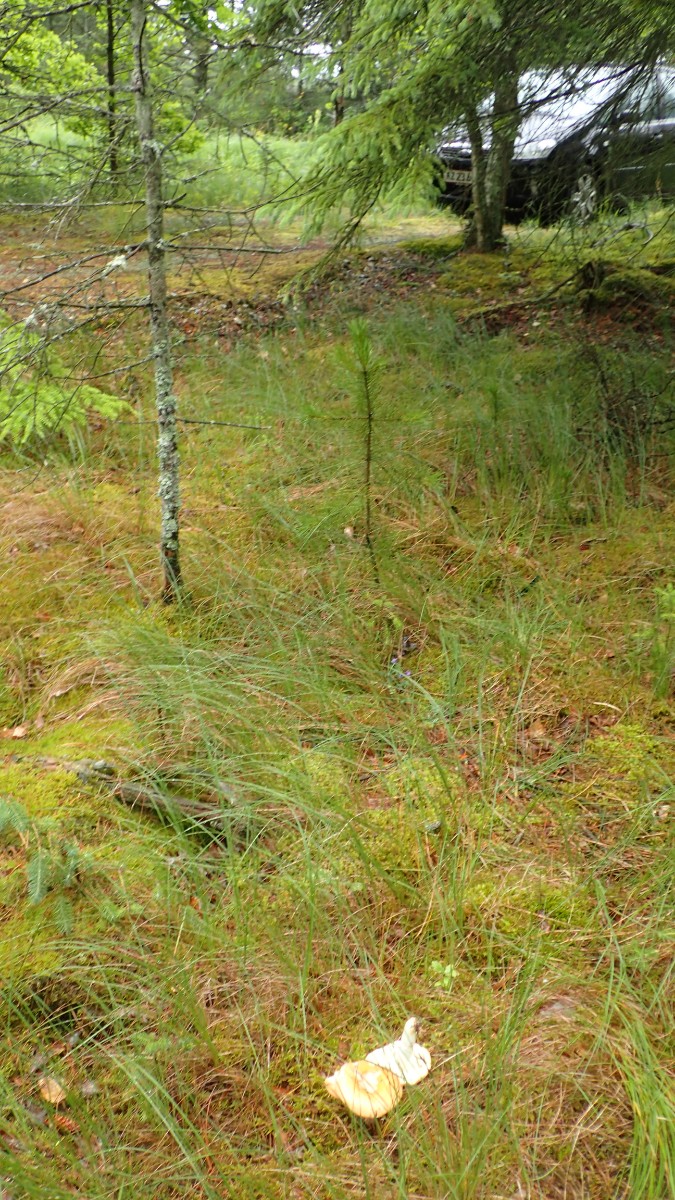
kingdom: Fungi
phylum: Basidiomycota
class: Agaricomycetes
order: Russulales
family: Russulaceae
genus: Russula
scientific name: Russula decolorans
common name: afblegende skørhat
